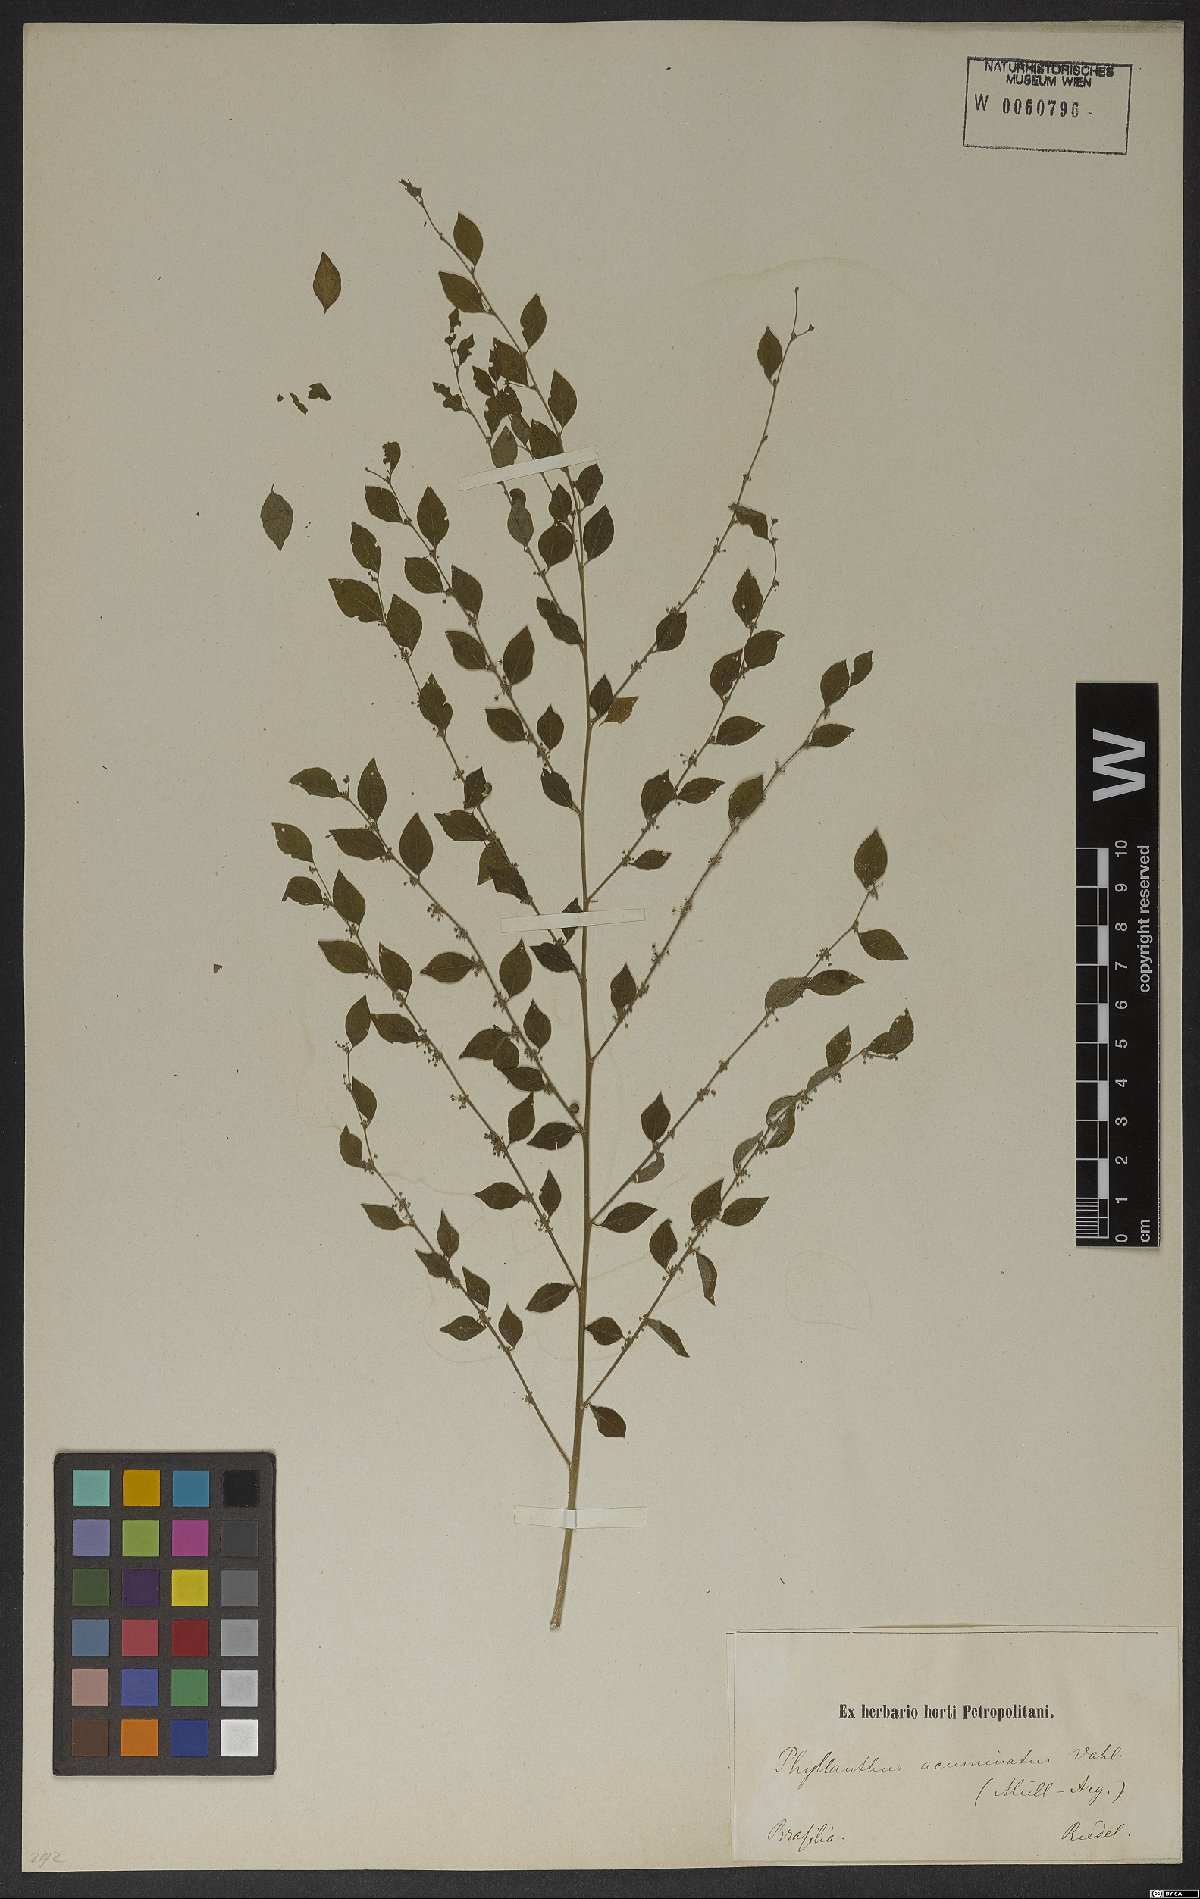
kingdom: Plantae
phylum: Tracheophyta
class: Magnoliopsida
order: Malpighiales
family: Phyllanthaceae
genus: Phyllanthus
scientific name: Phyllanthus acuminatus
